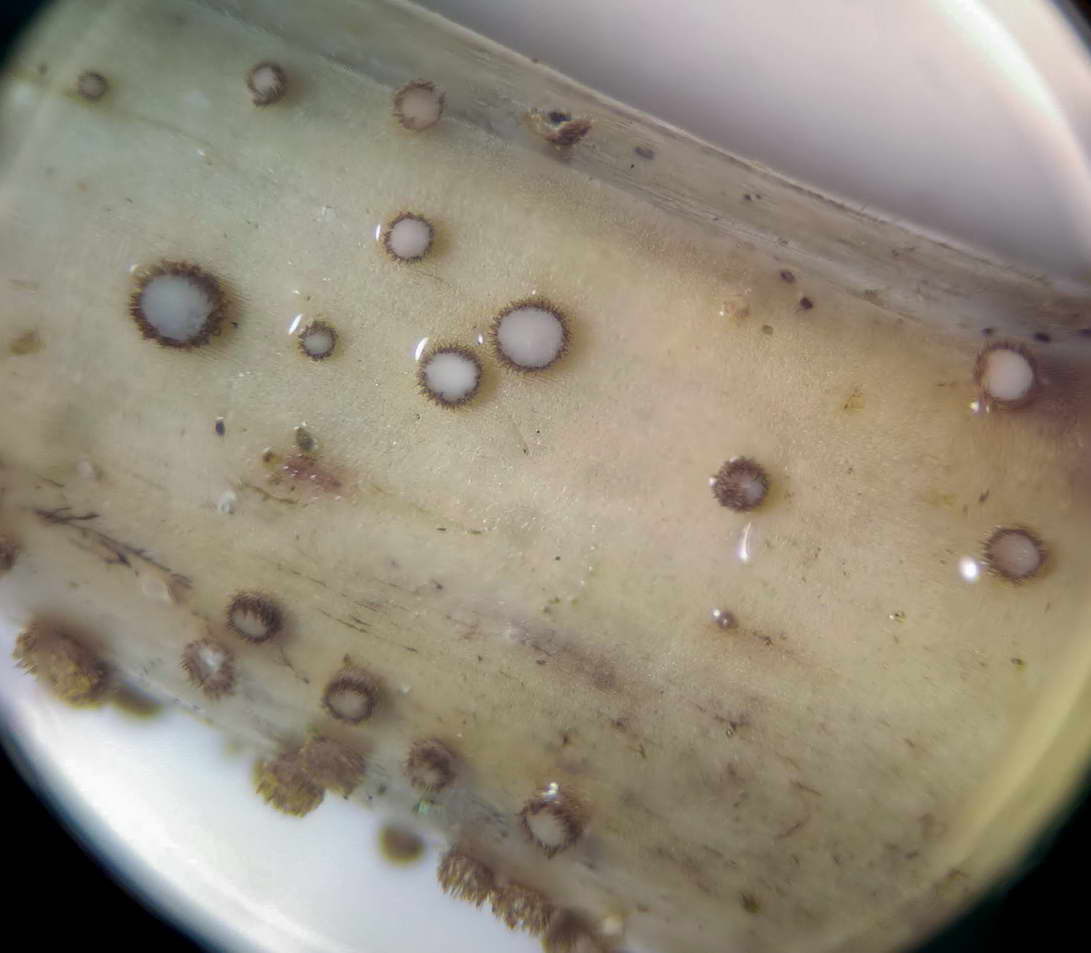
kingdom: Fungi
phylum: Ascomycota
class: Leotiomycetes
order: Helotiales
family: Solenopeziaceae
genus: Lasiobelonium
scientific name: Lasiobelonium nidulus
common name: rede-frynseskive
